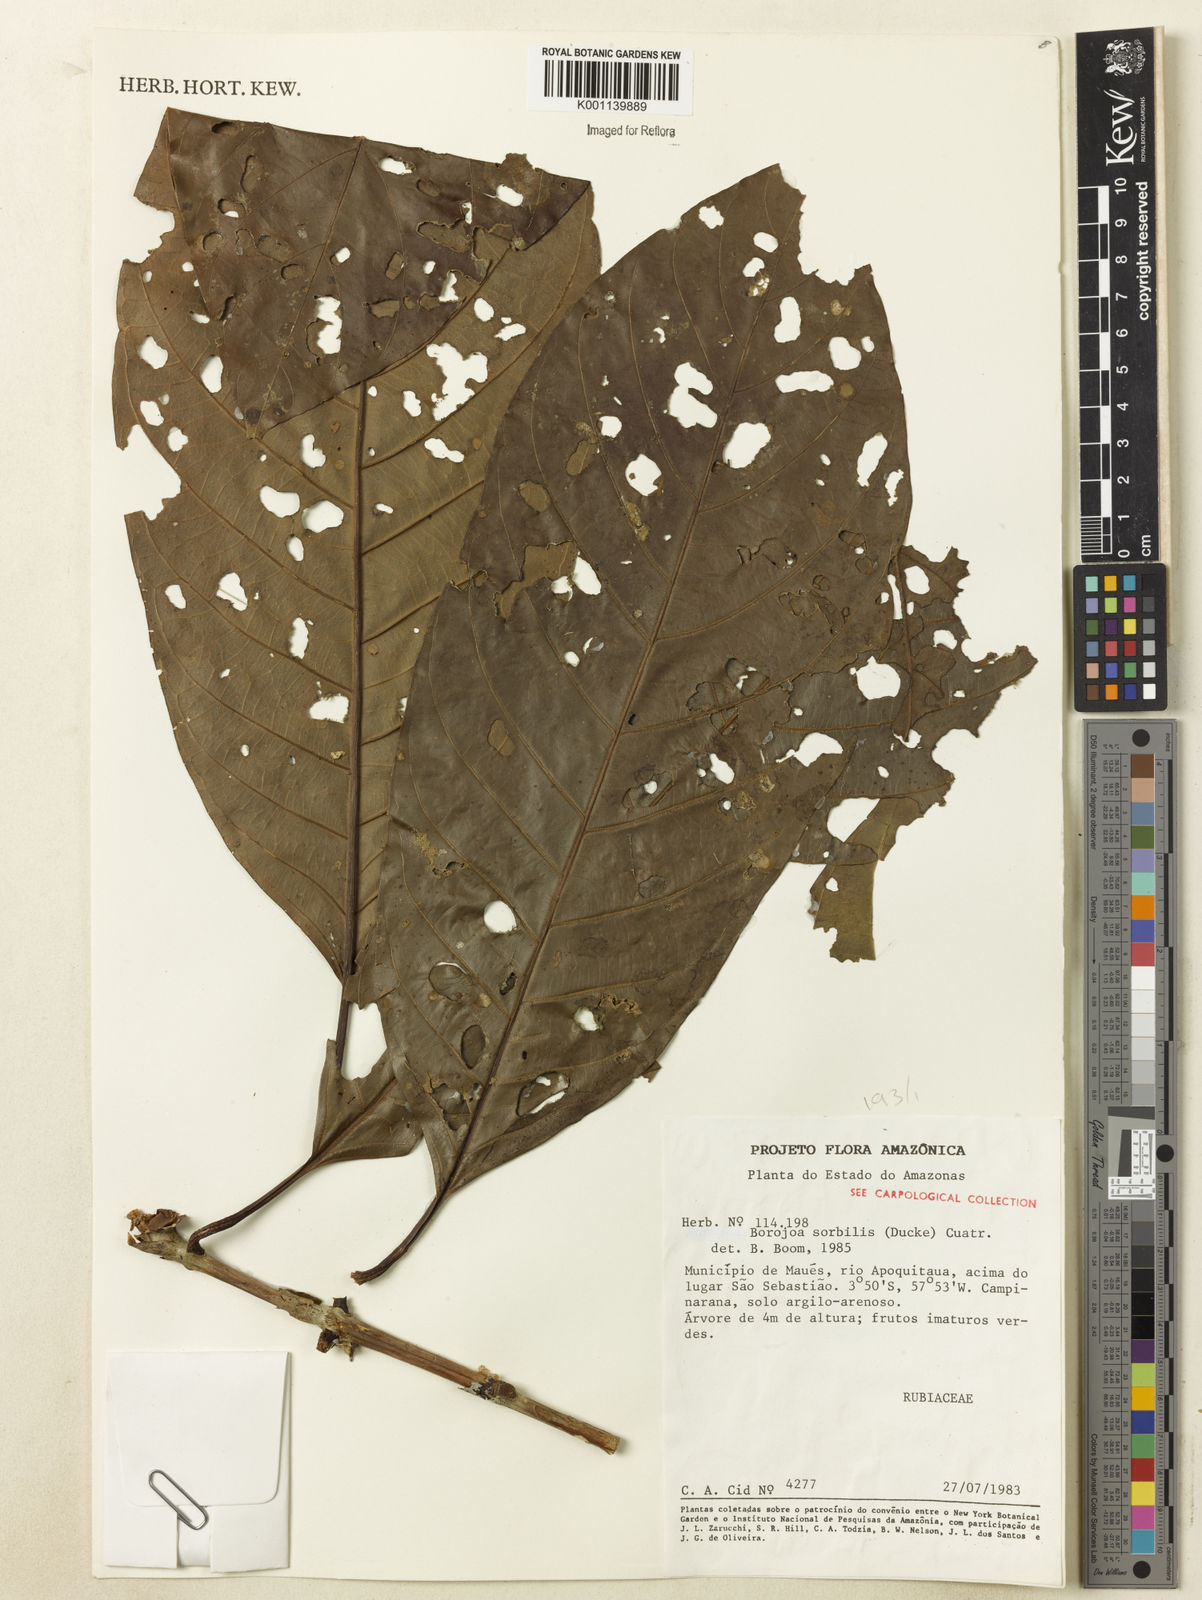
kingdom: Plantae
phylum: Tracheophyta
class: Magnoliopsida
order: Gentianales
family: Rubiaceae
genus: Alibertia
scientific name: Alibertia sorbilis
